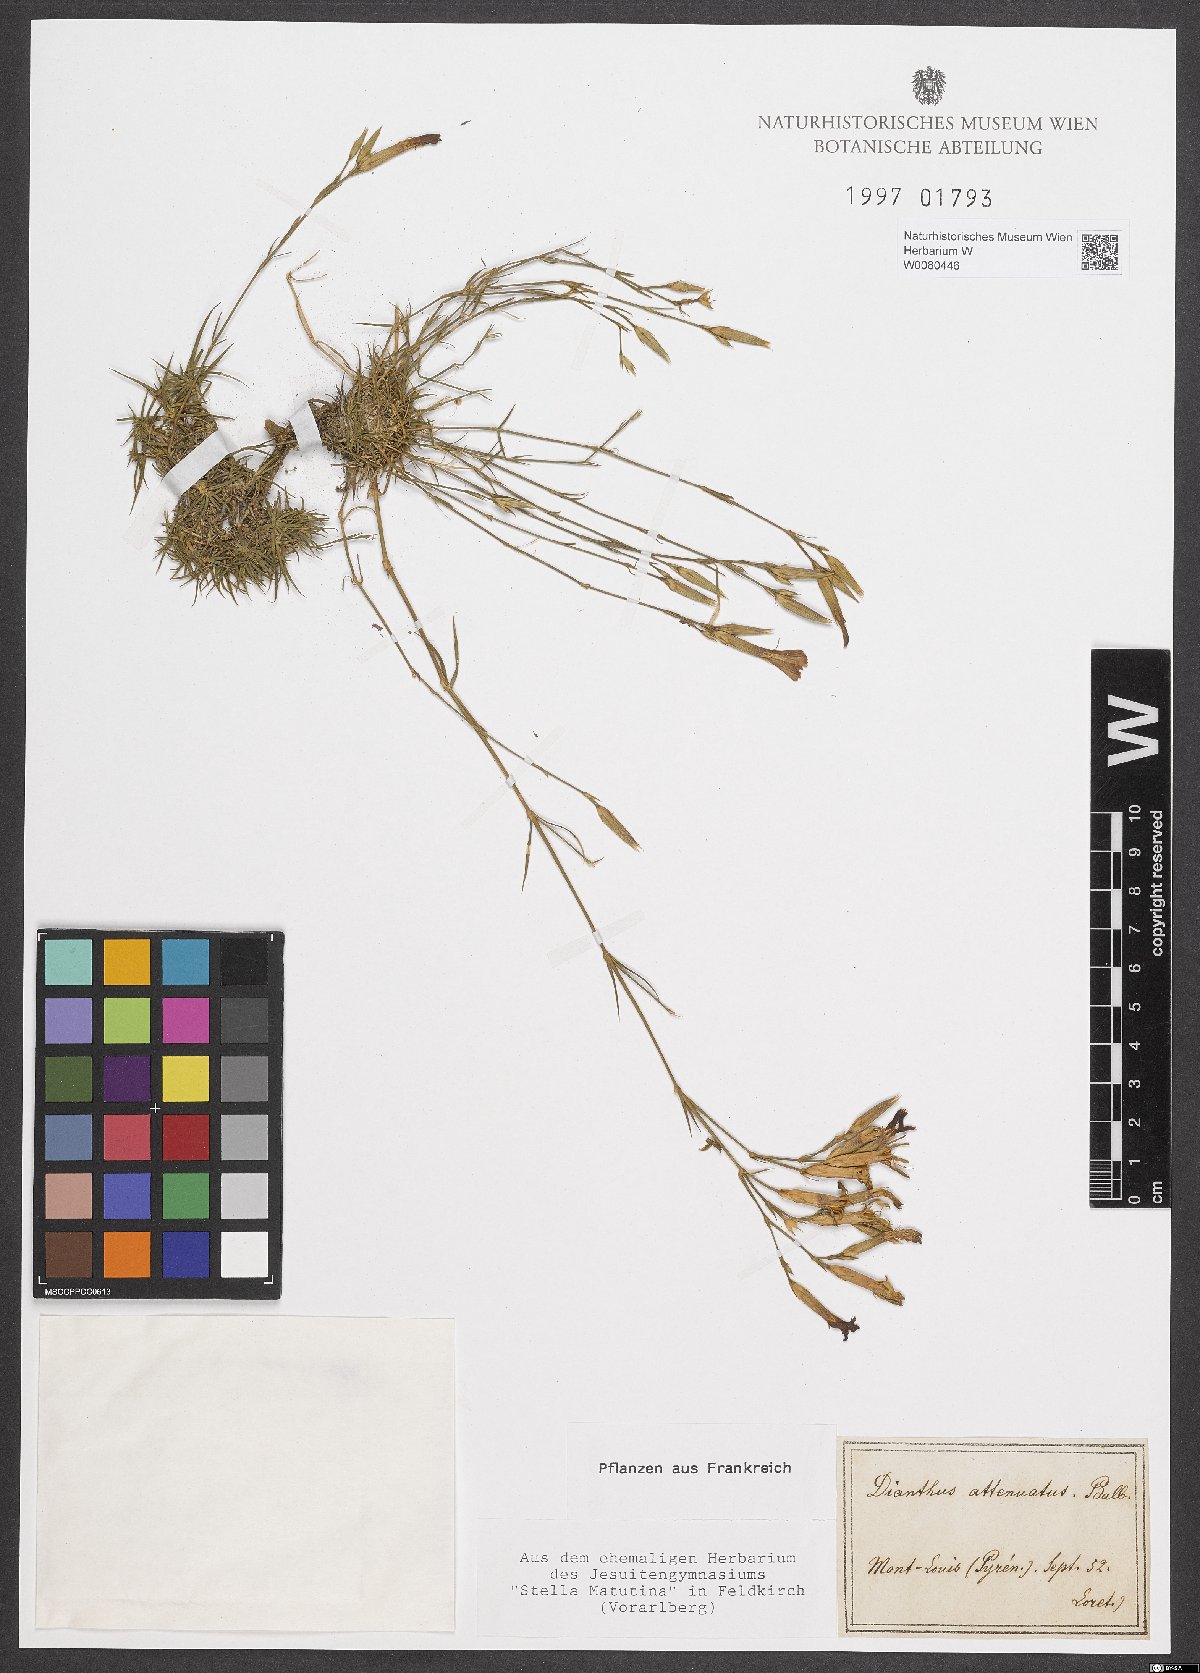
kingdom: Plantae
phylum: Tracheophyta
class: Magnoliopsida
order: Caryophyllales
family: Caryophyllaceae
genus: Dianthus
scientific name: Dianthus pyrenaicus
